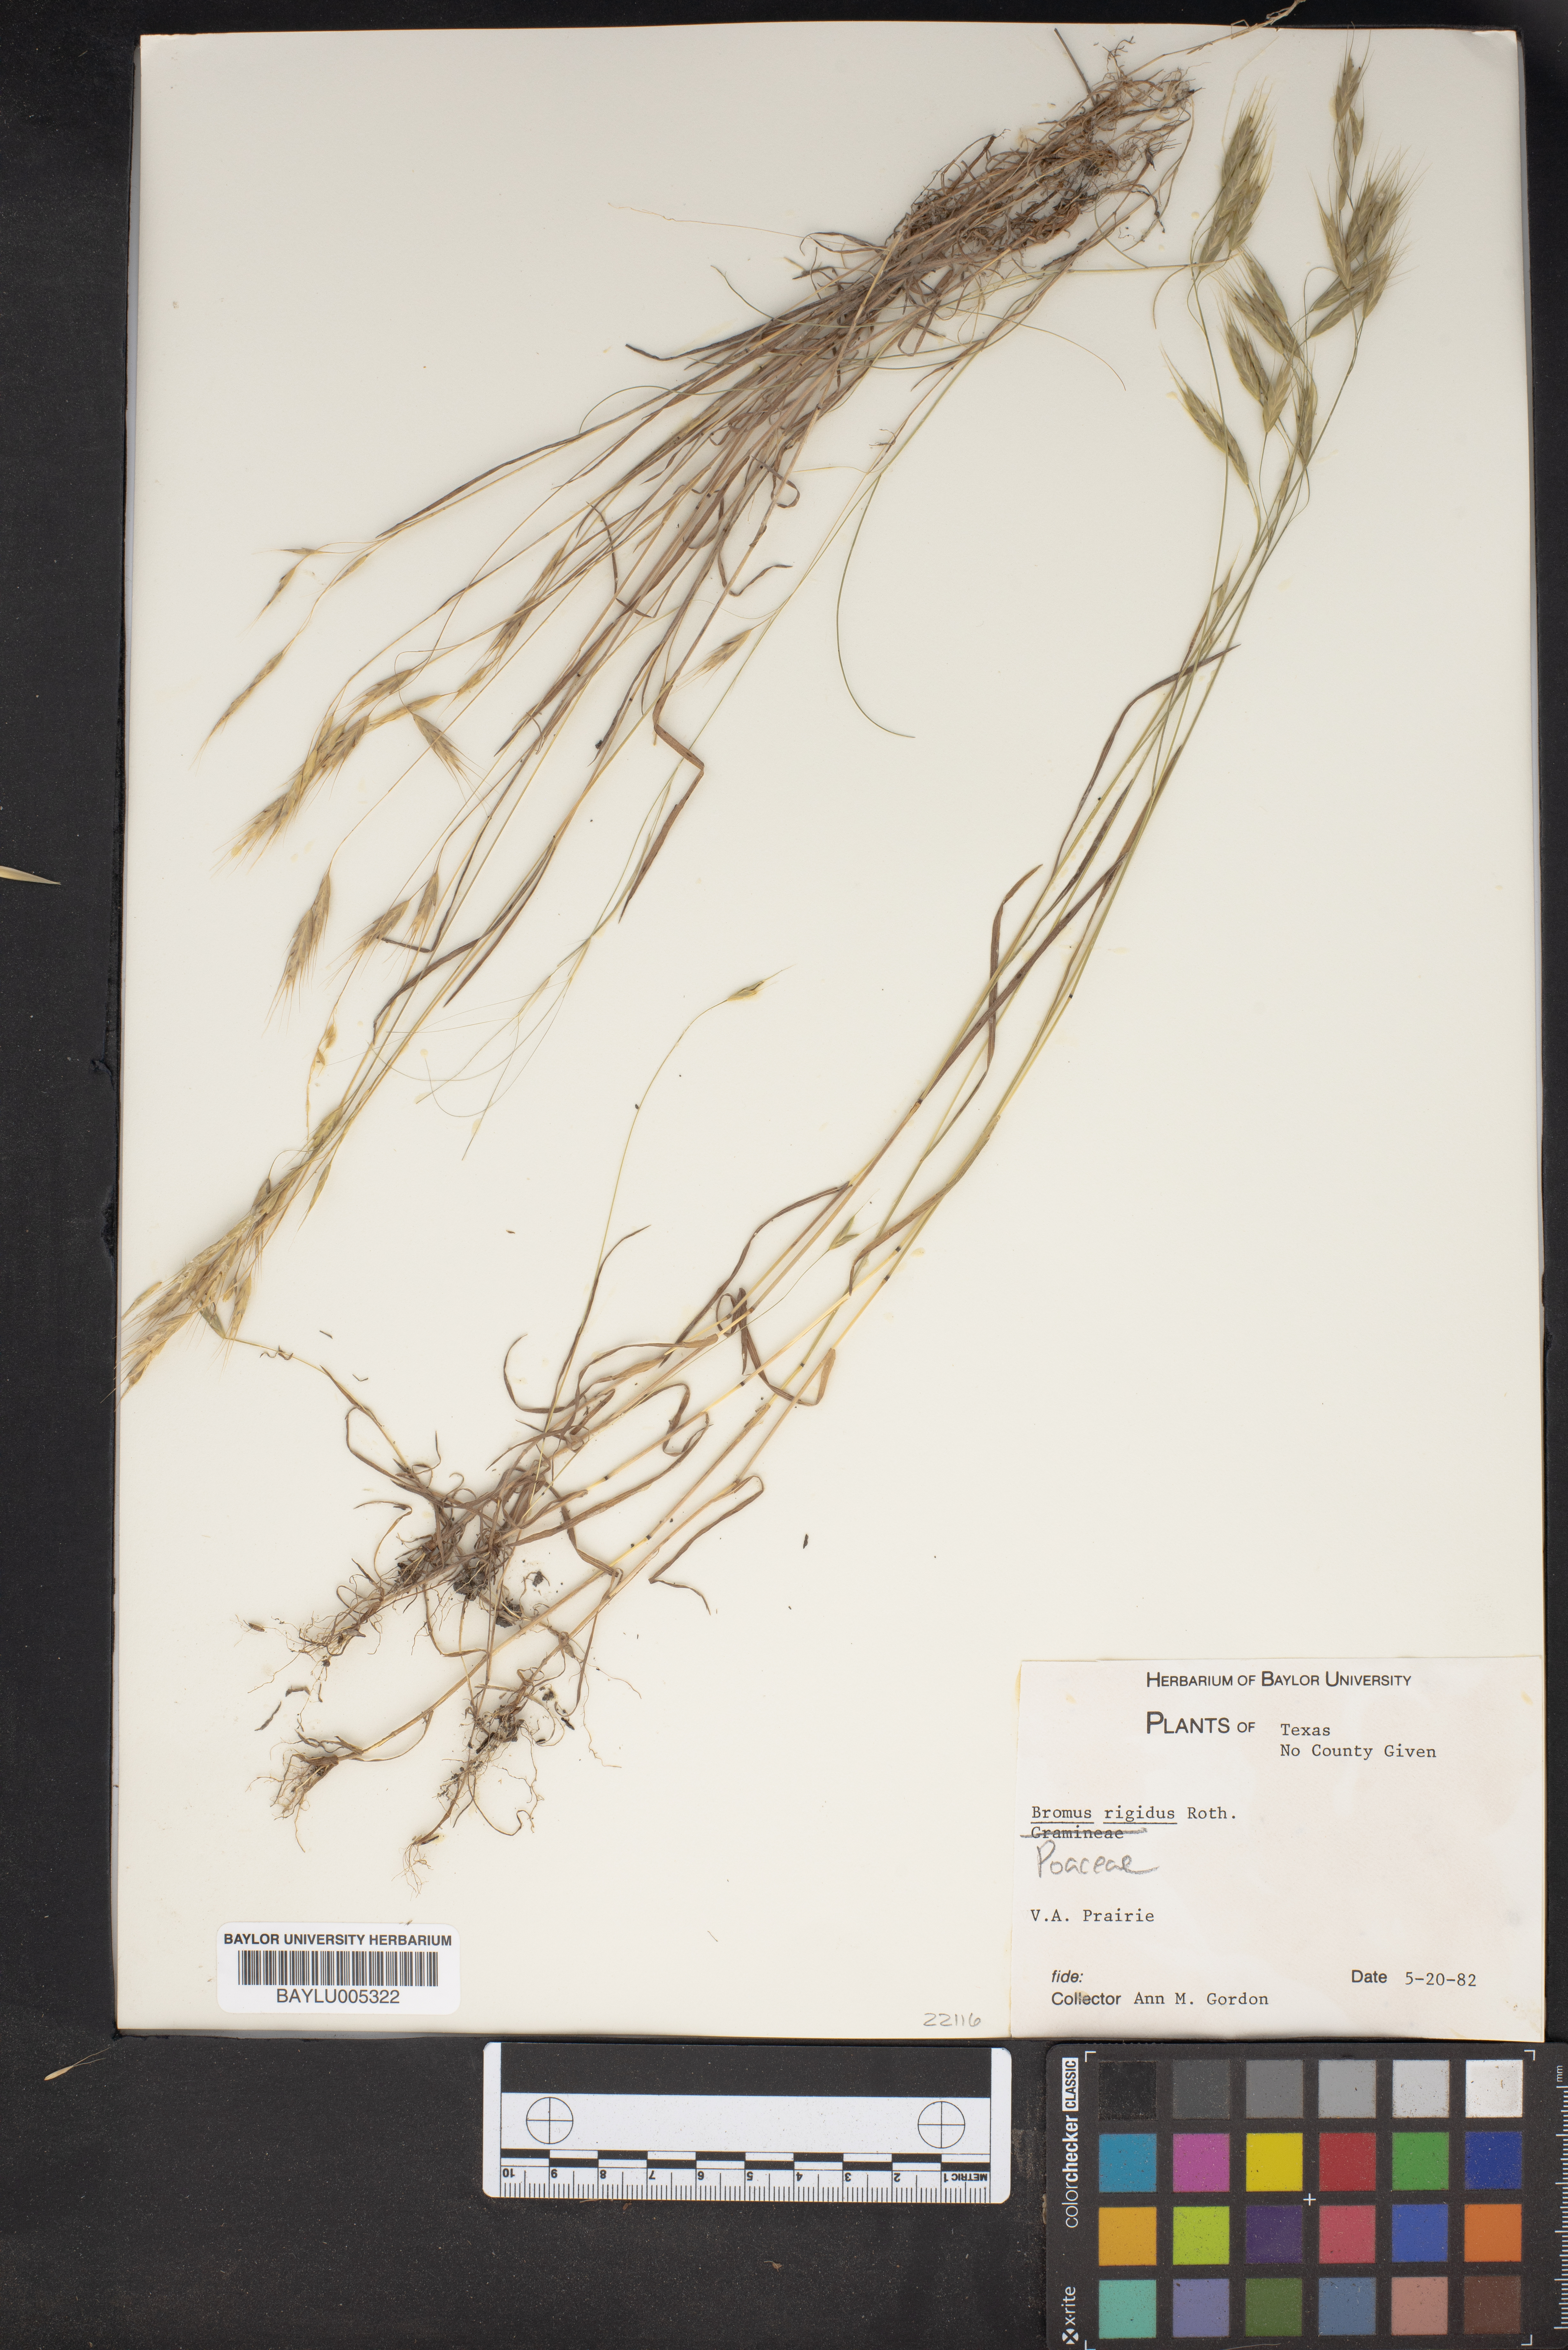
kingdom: Plantae
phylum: Tracheophyta
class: Liliopsida
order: Poales
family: Poaceae
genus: Bromus
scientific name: Bromus rigidus
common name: Ripgut brome
